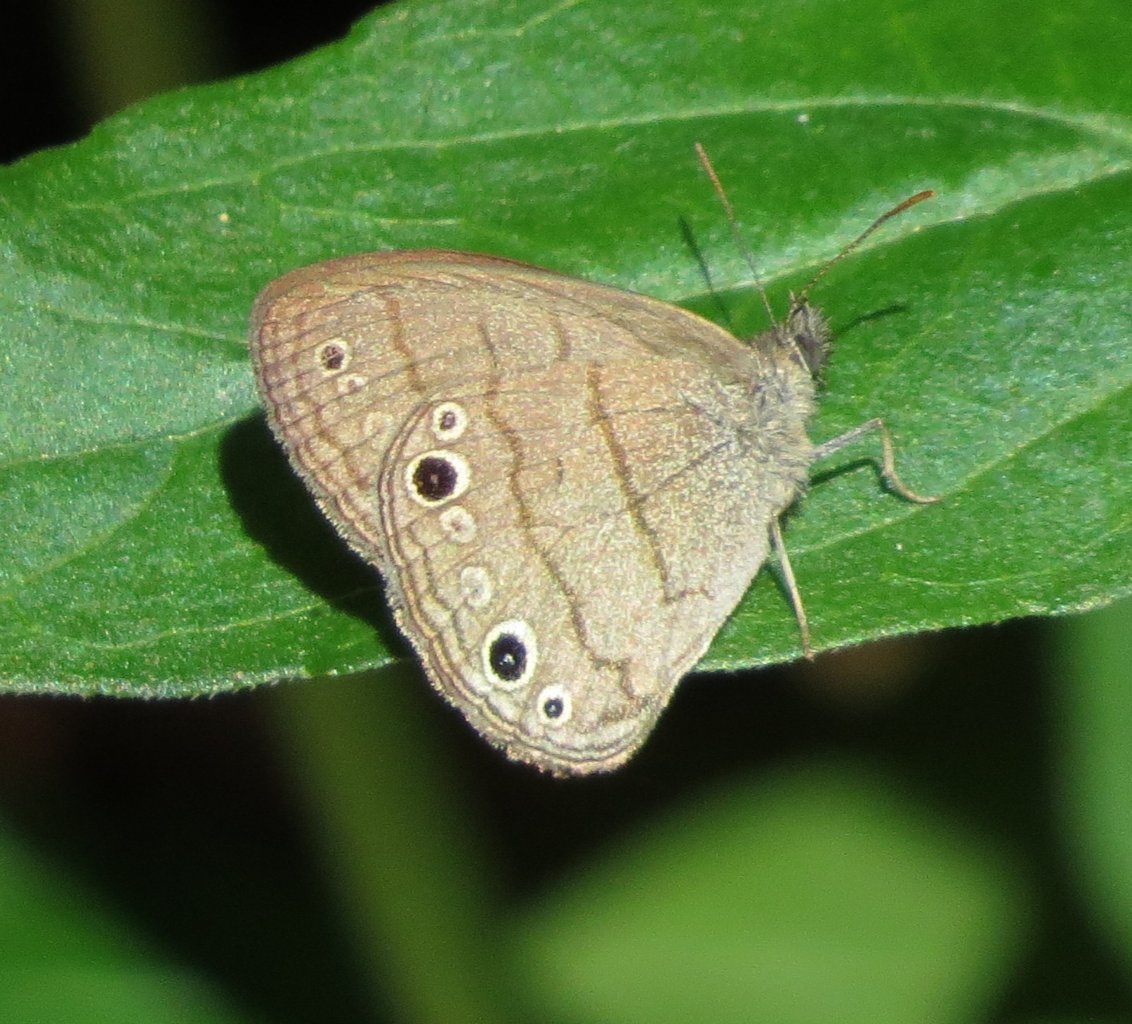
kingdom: Animalia
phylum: Arthropoda
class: Insecta
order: Lepidoptera
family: Nymphalidae
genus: Hermeuptychia
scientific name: Hermeuptychia hermes
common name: Carolina Satyr
